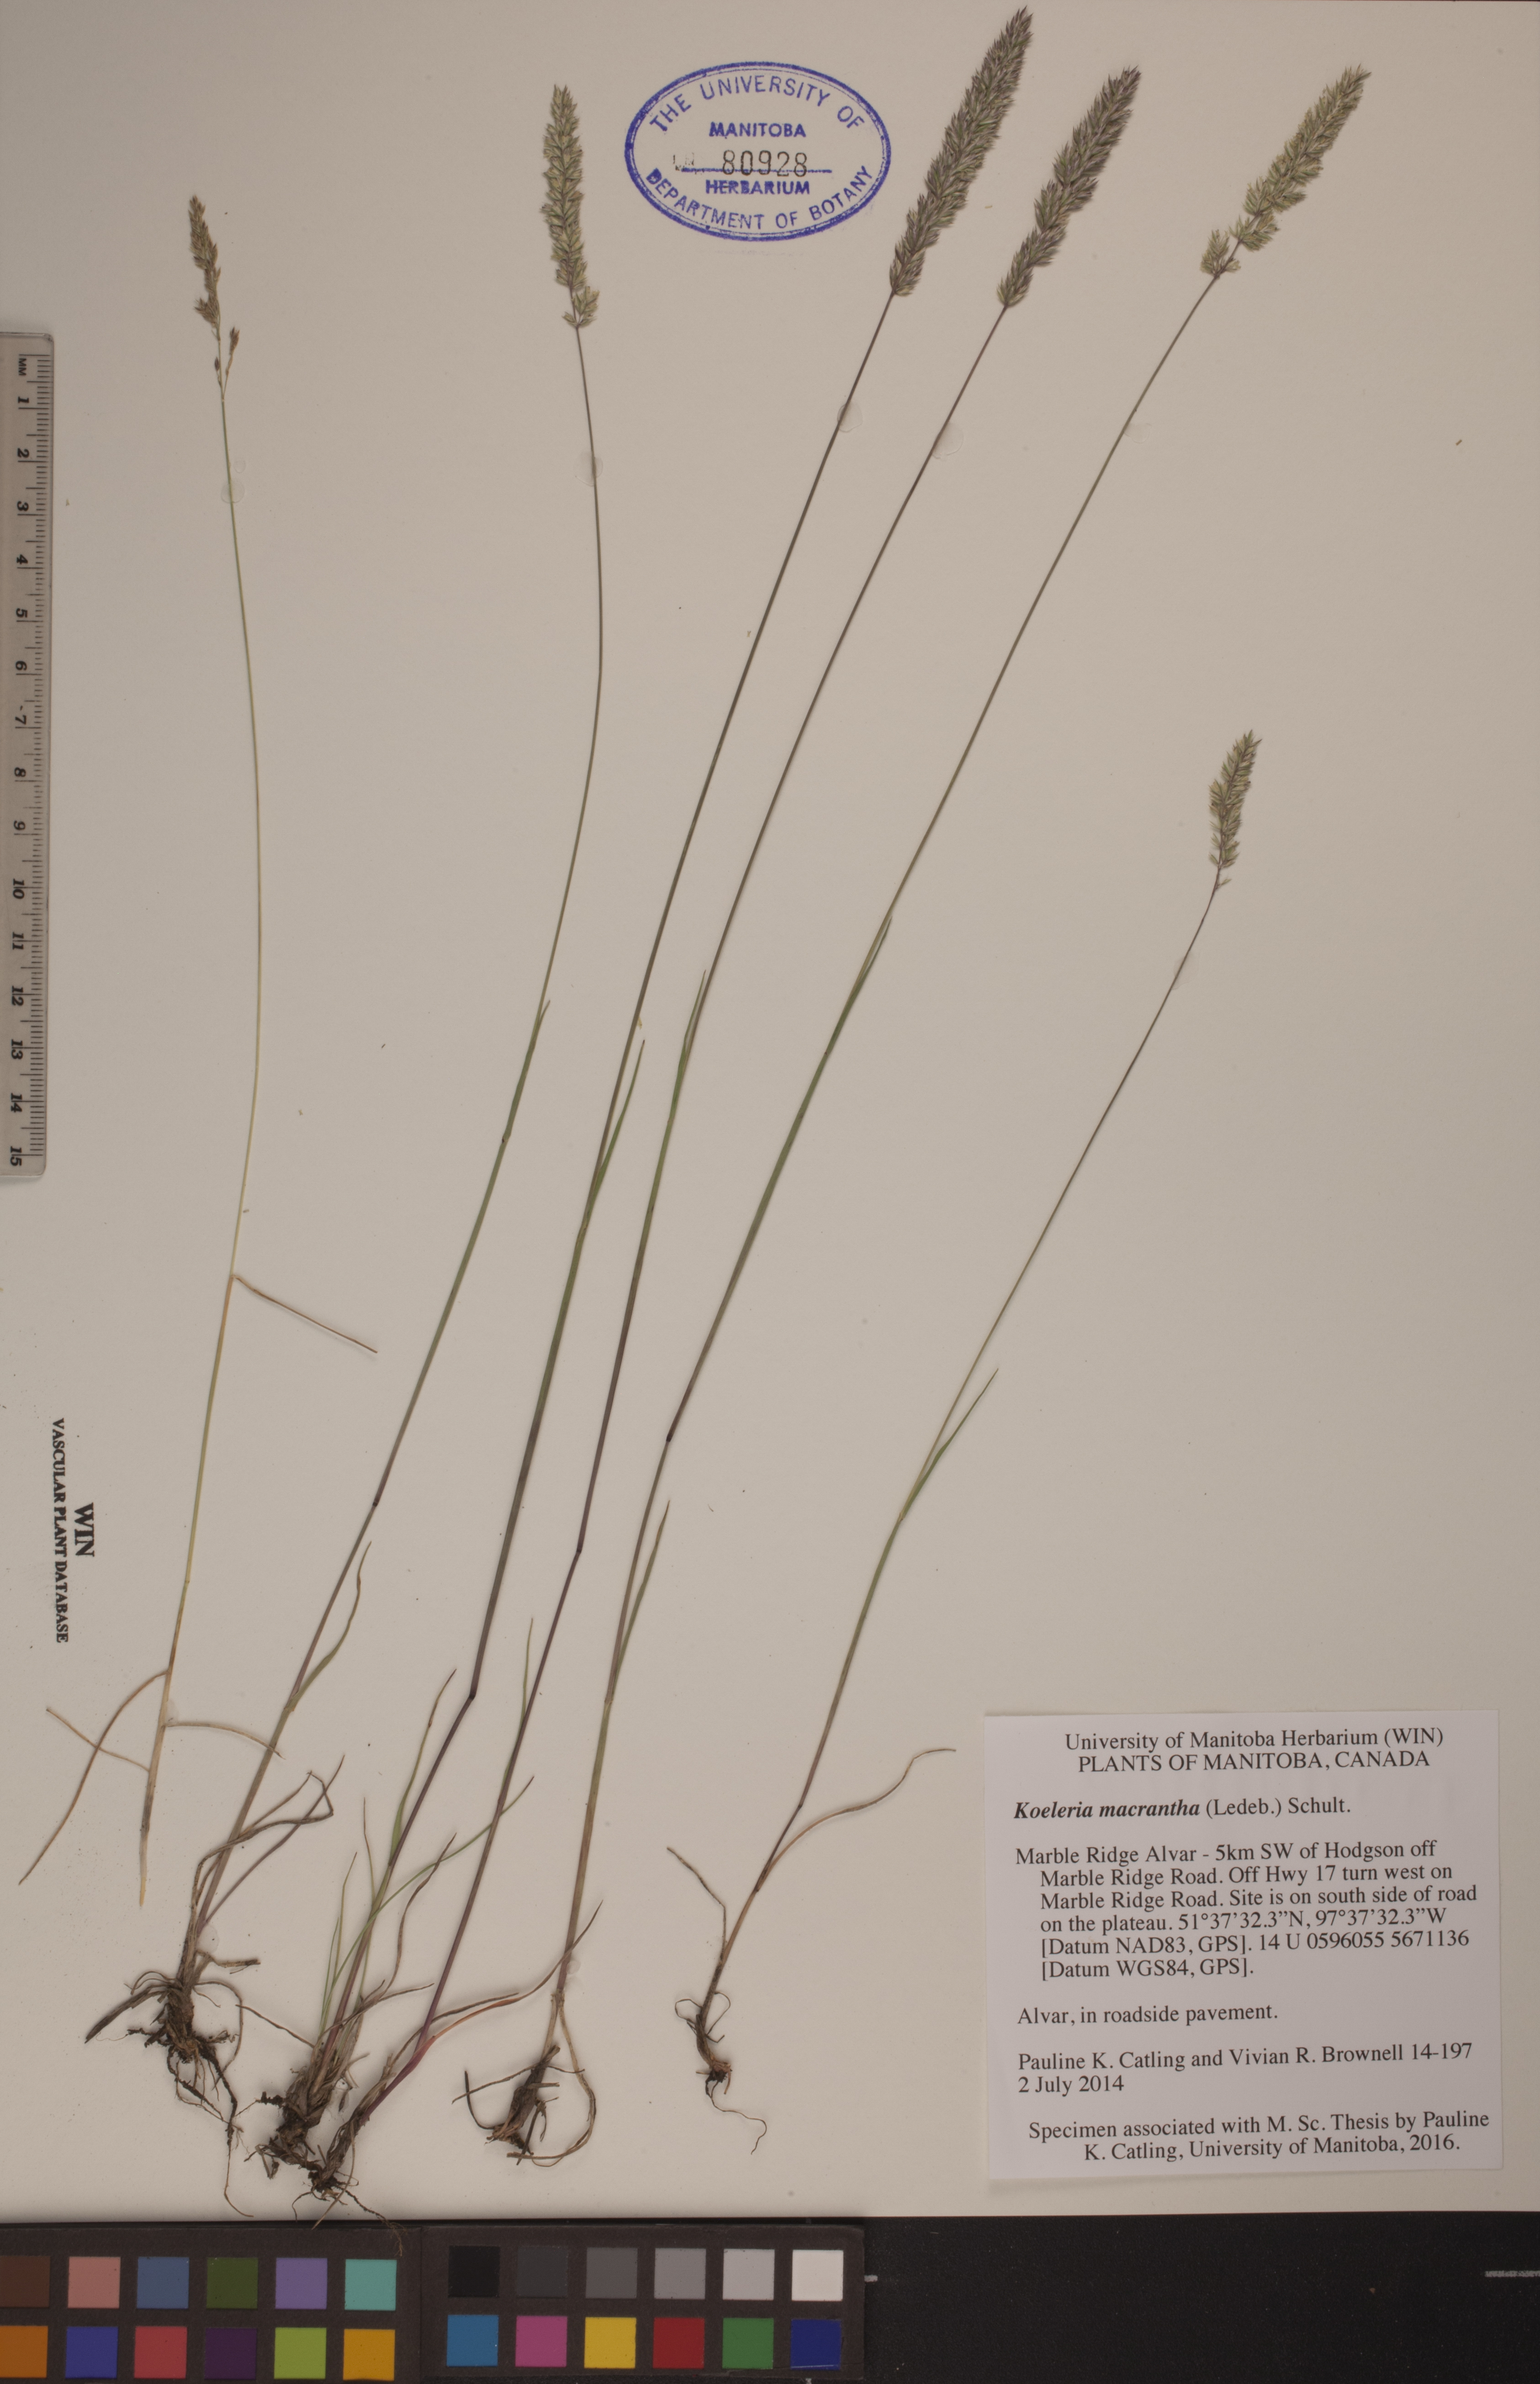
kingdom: Plantae
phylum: Tracheophyta
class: Liliopsida
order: Poales
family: Poaceae
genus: Koeleria
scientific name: Koeleria macrantha
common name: Crested hair-grass
